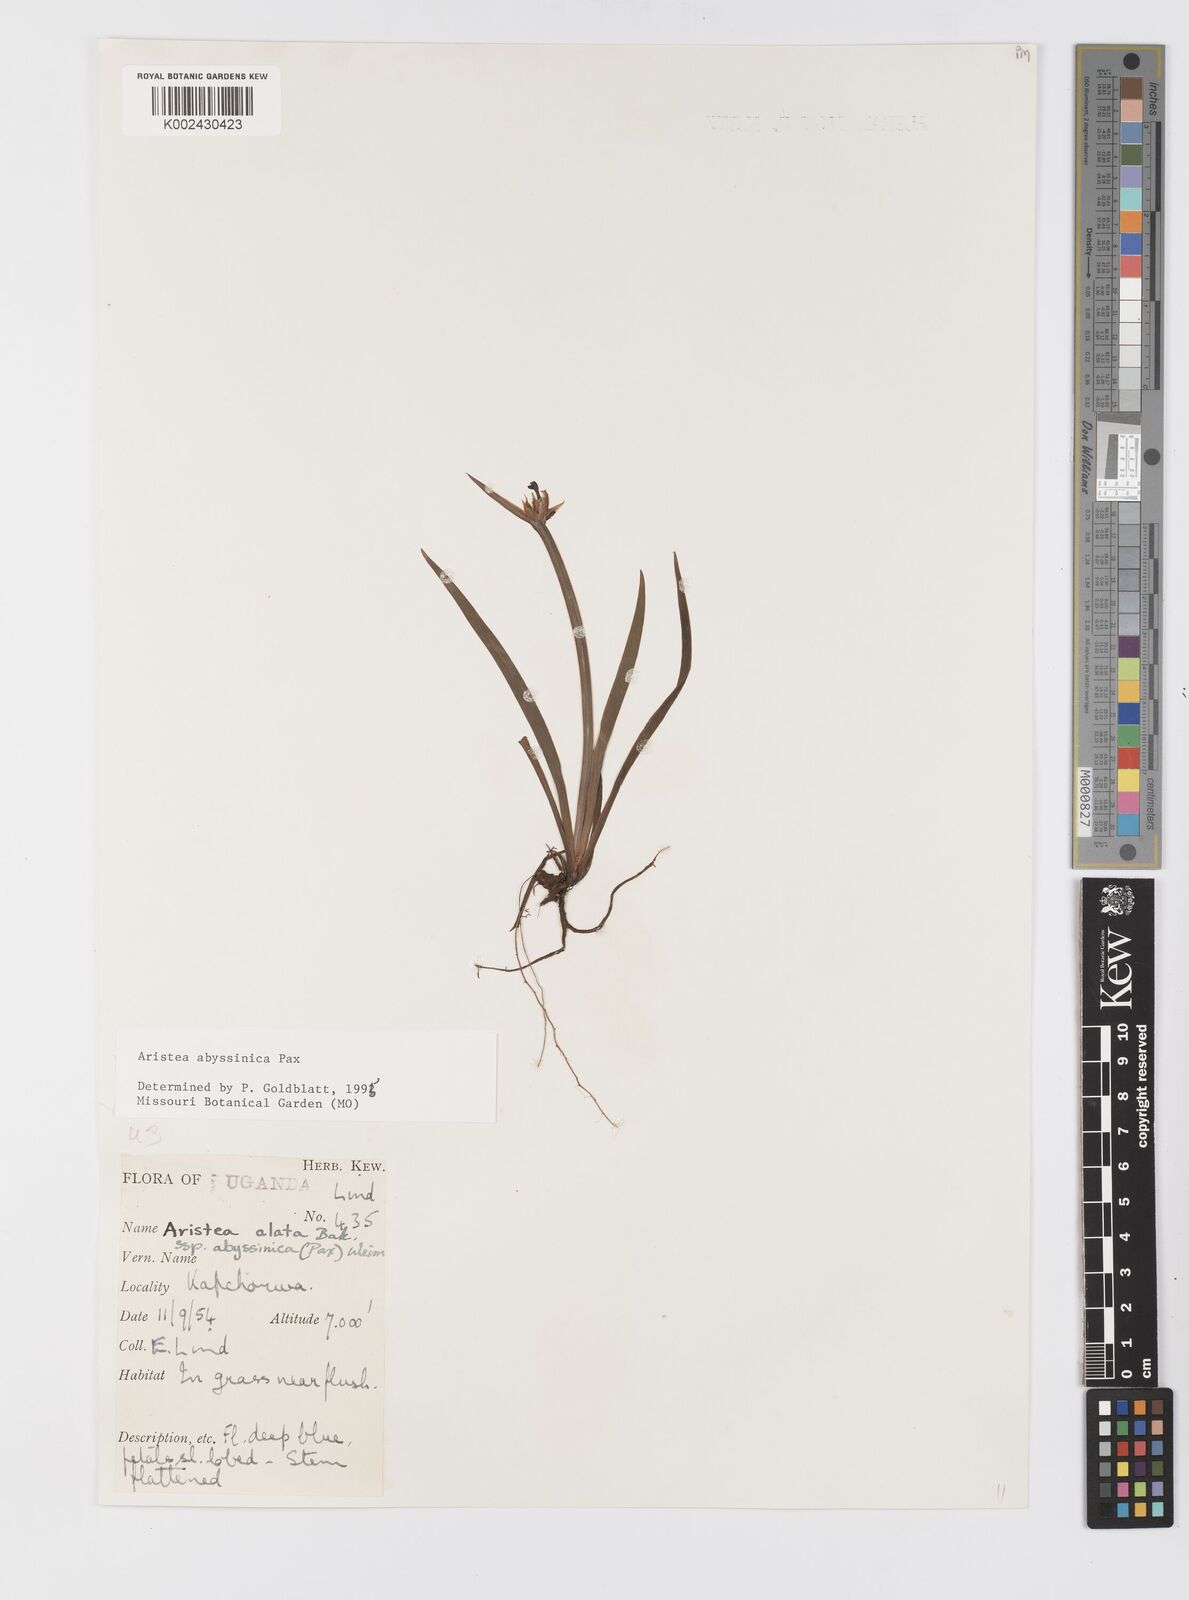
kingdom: Plantae
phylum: Tracheophyta
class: Liliopsida
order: Asparagales
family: Iridaceae
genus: Aristea
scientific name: Aristea abyssinica
